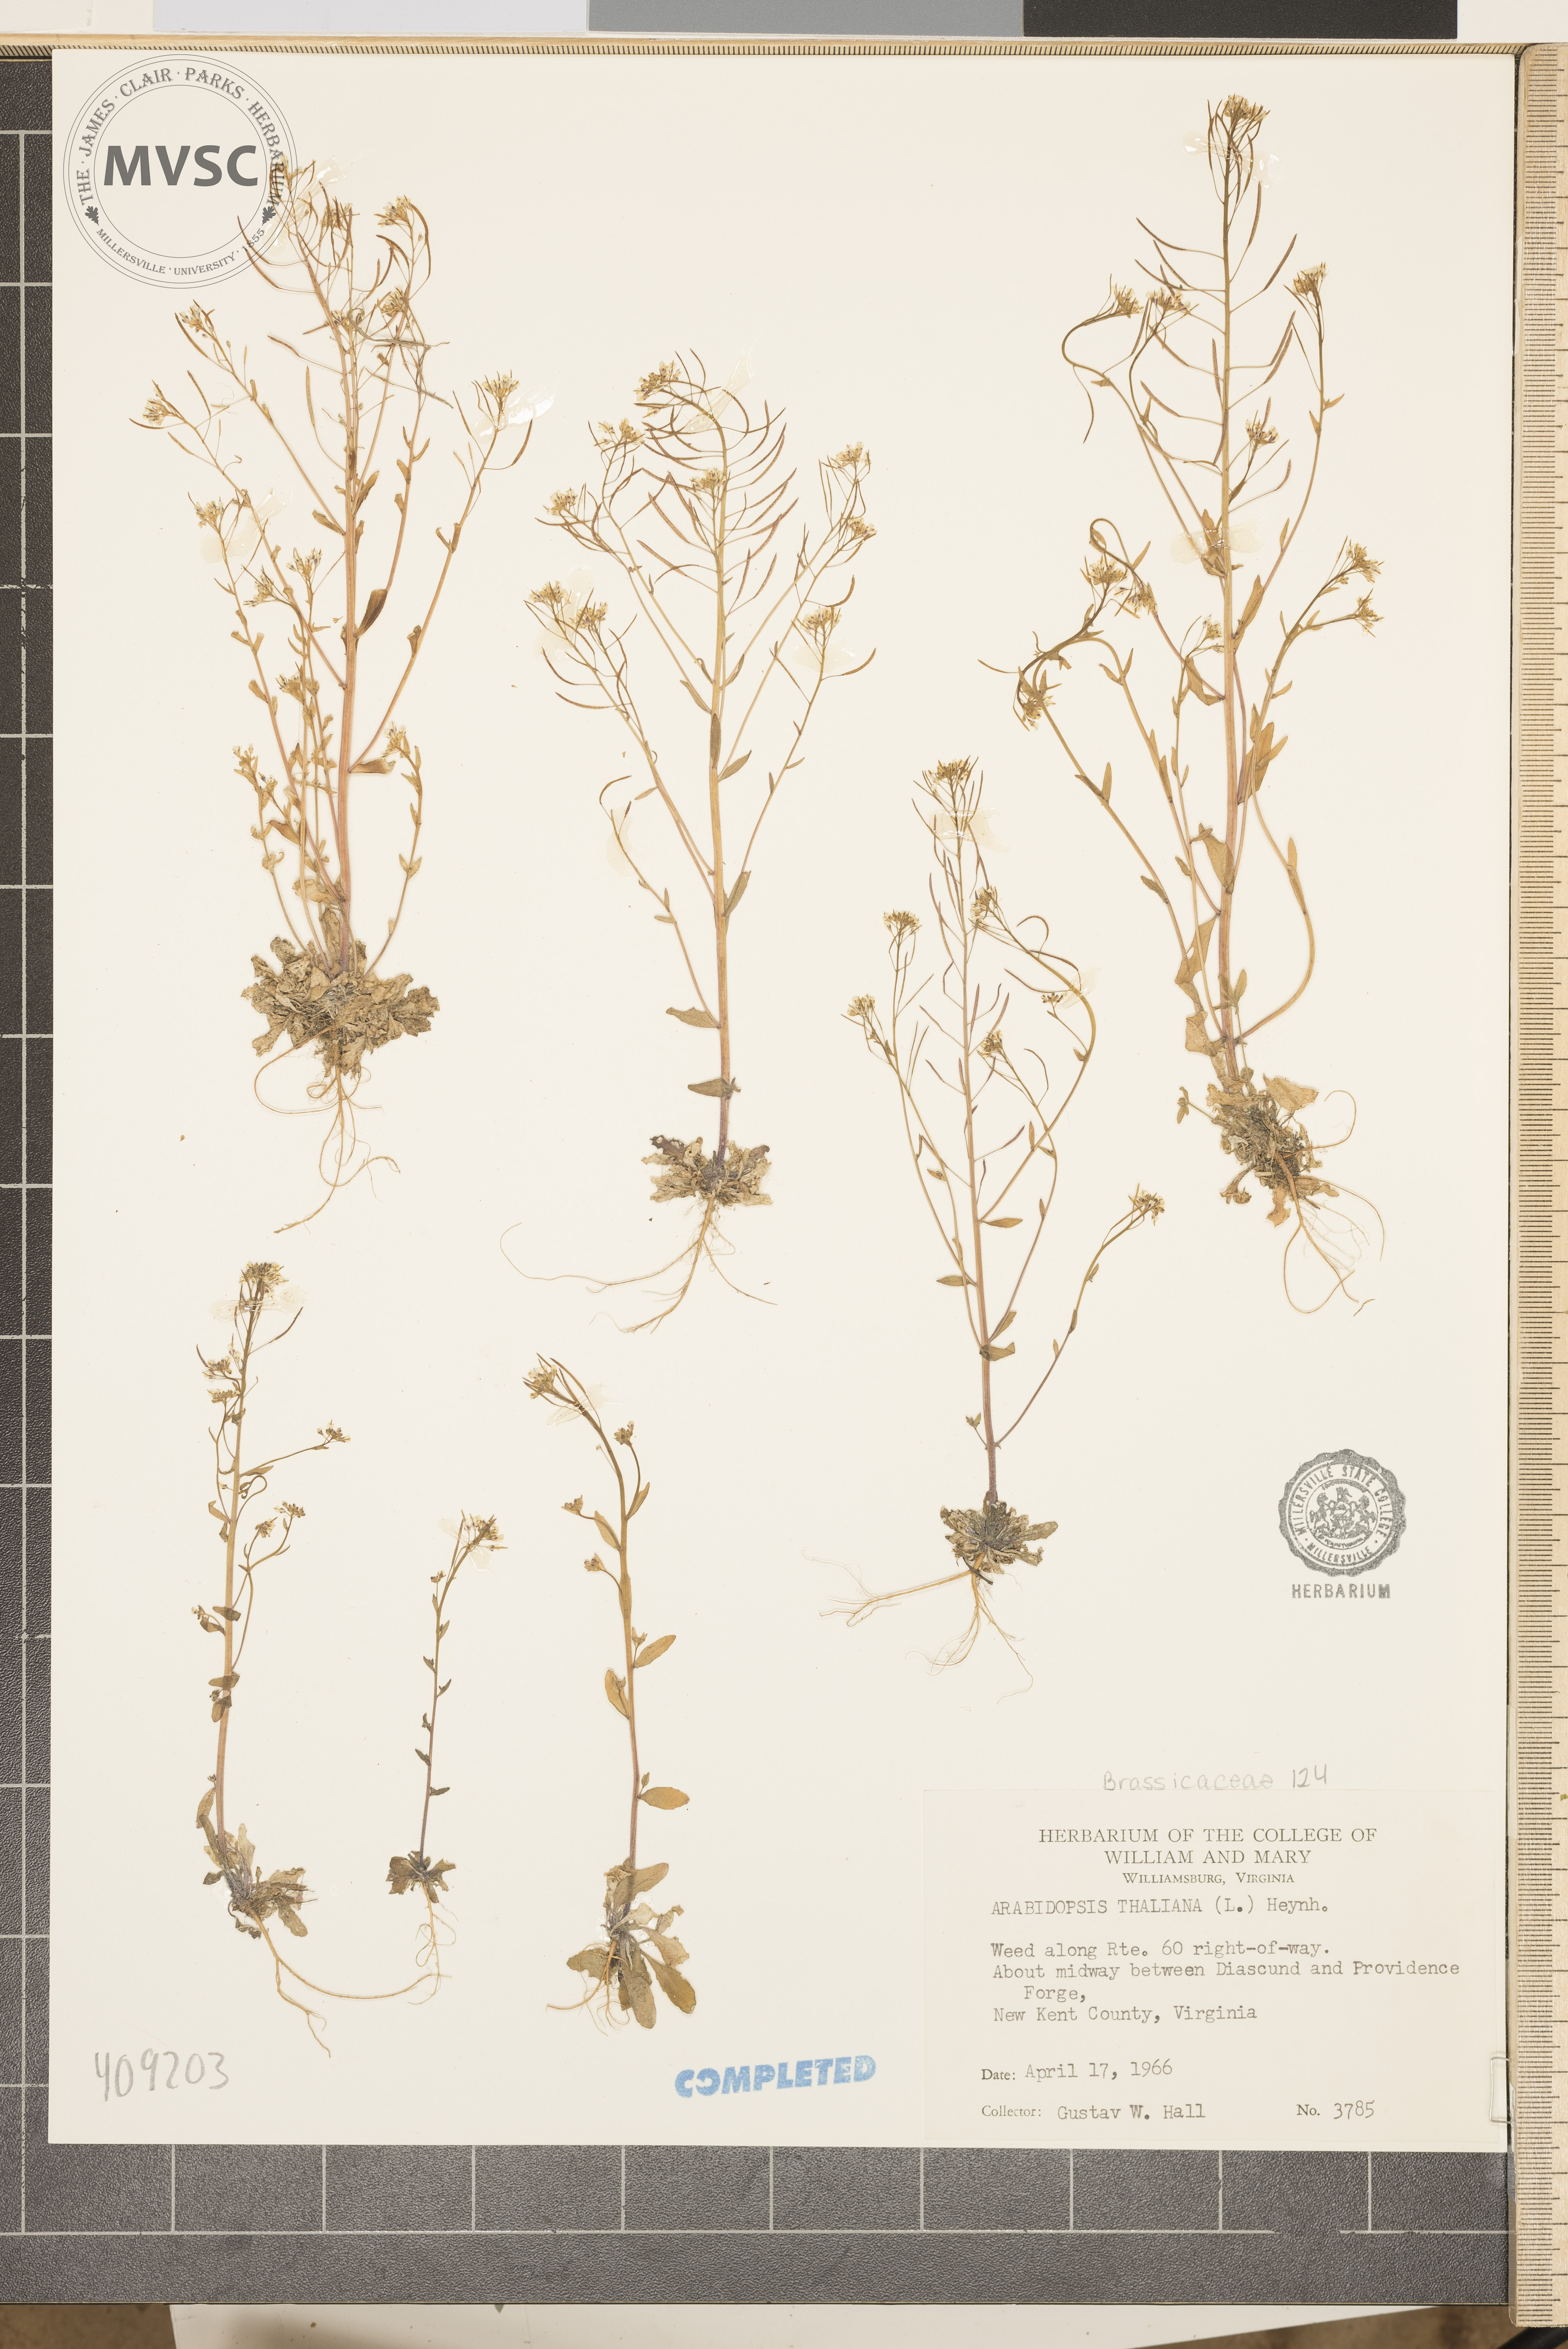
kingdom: Plantae
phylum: Tracheophyta
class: Magnoliopsida
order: Brassicales
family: Brassicaceae
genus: Arabidopsis
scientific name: Arabidopsis thaliana
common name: Thale cress
